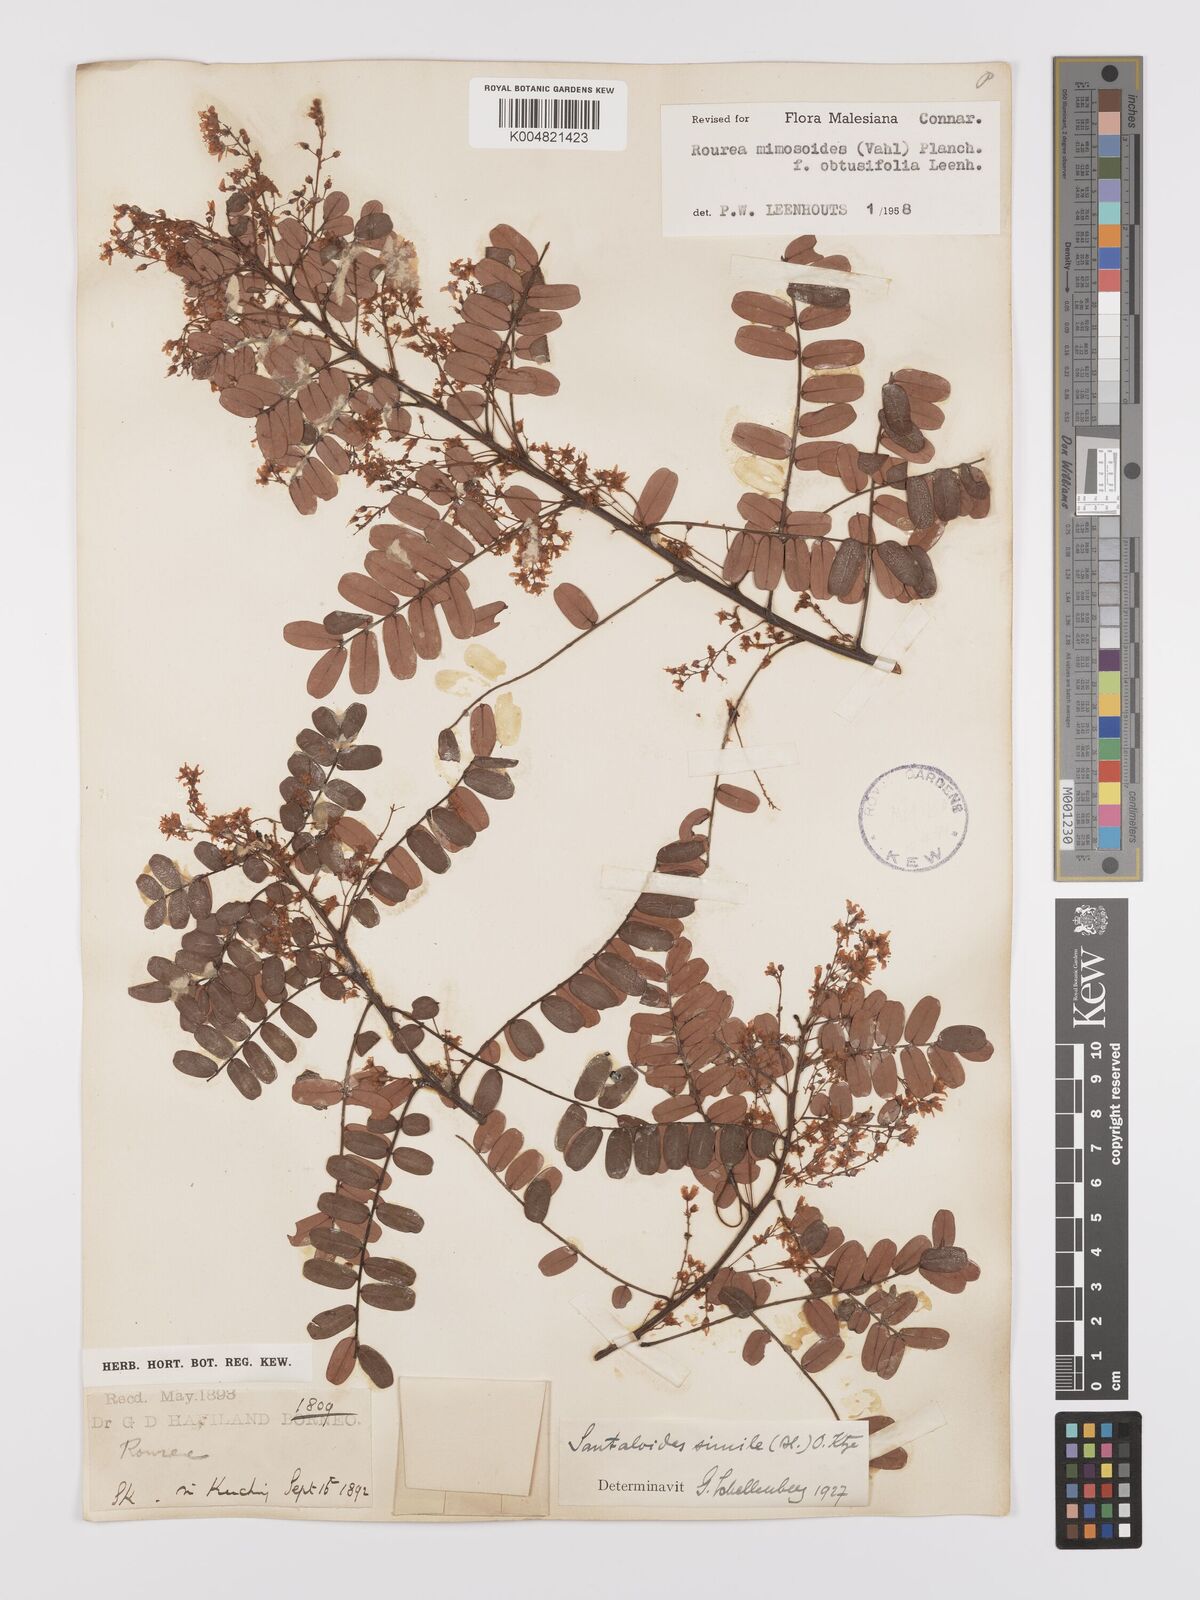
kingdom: Plantae
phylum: Tracheophyta
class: Magnoliopsida
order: Oxalidales
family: Connaraceae
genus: Rourea
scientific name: Rourea mimosoides
